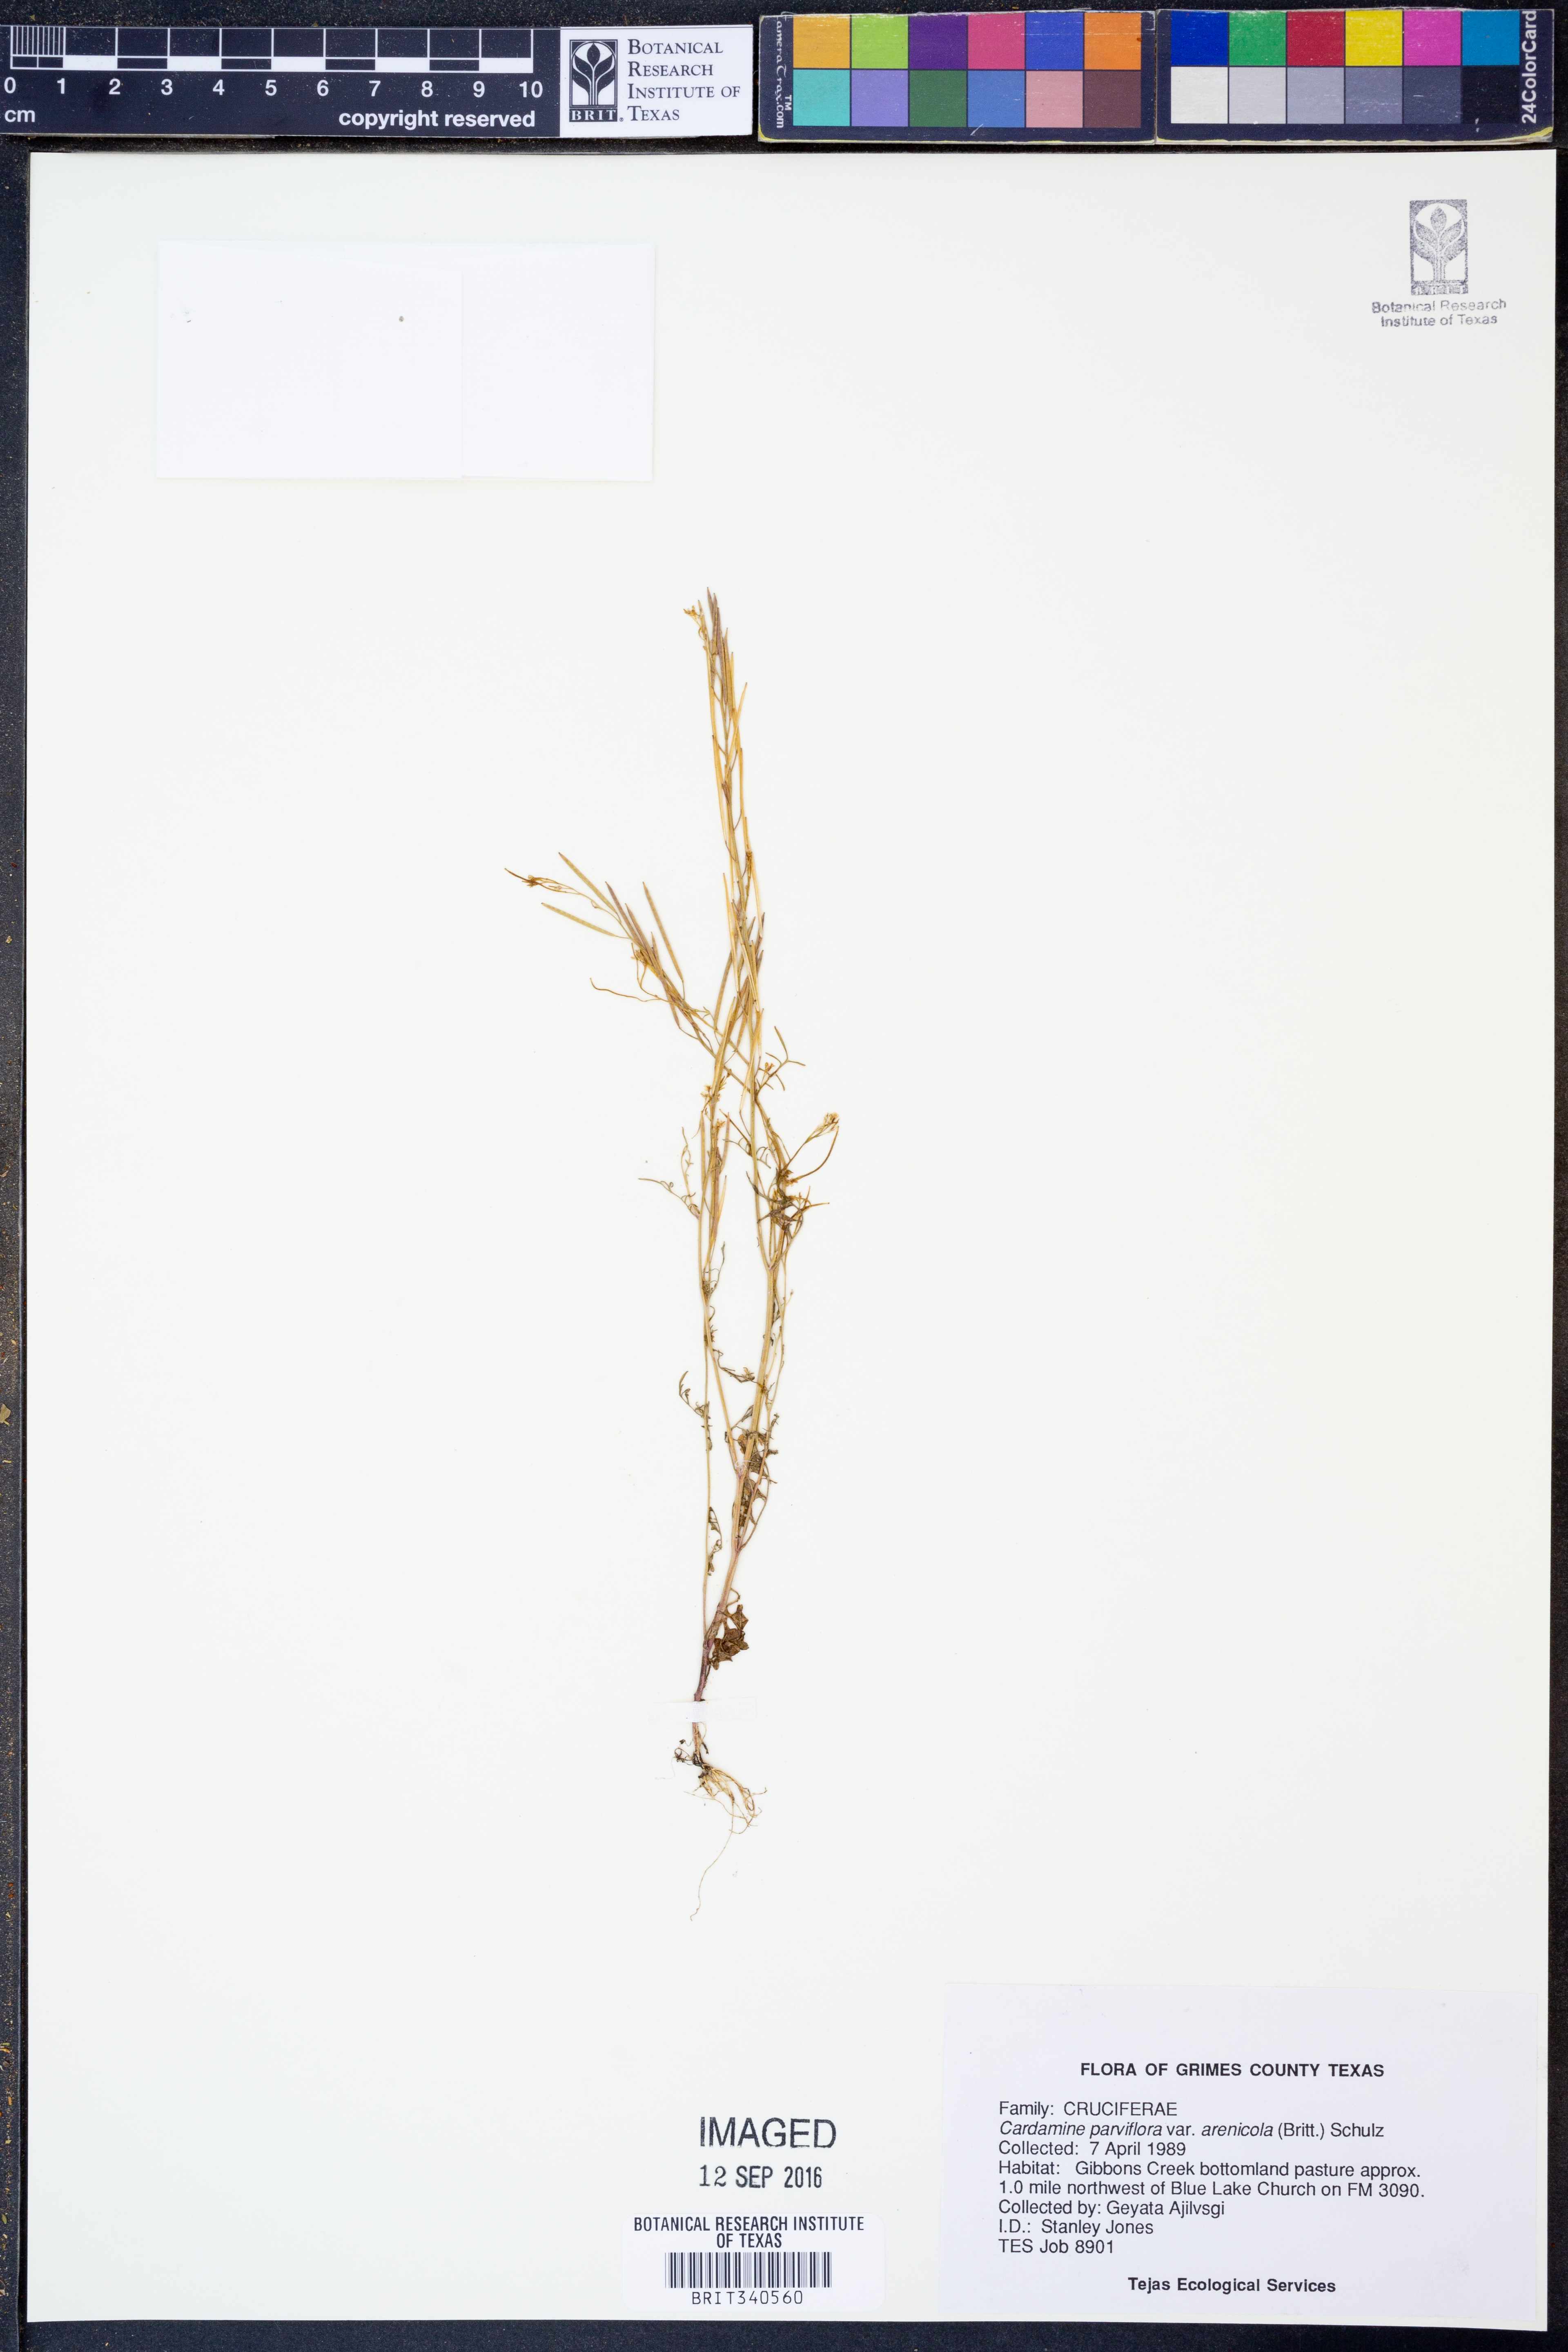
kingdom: Plantae
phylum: Tracheophyta
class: Magnoliopsida
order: Brassicales
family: Brassicaceae
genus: Cardamine
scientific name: Cardamine parviflora
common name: Sand bittercress
